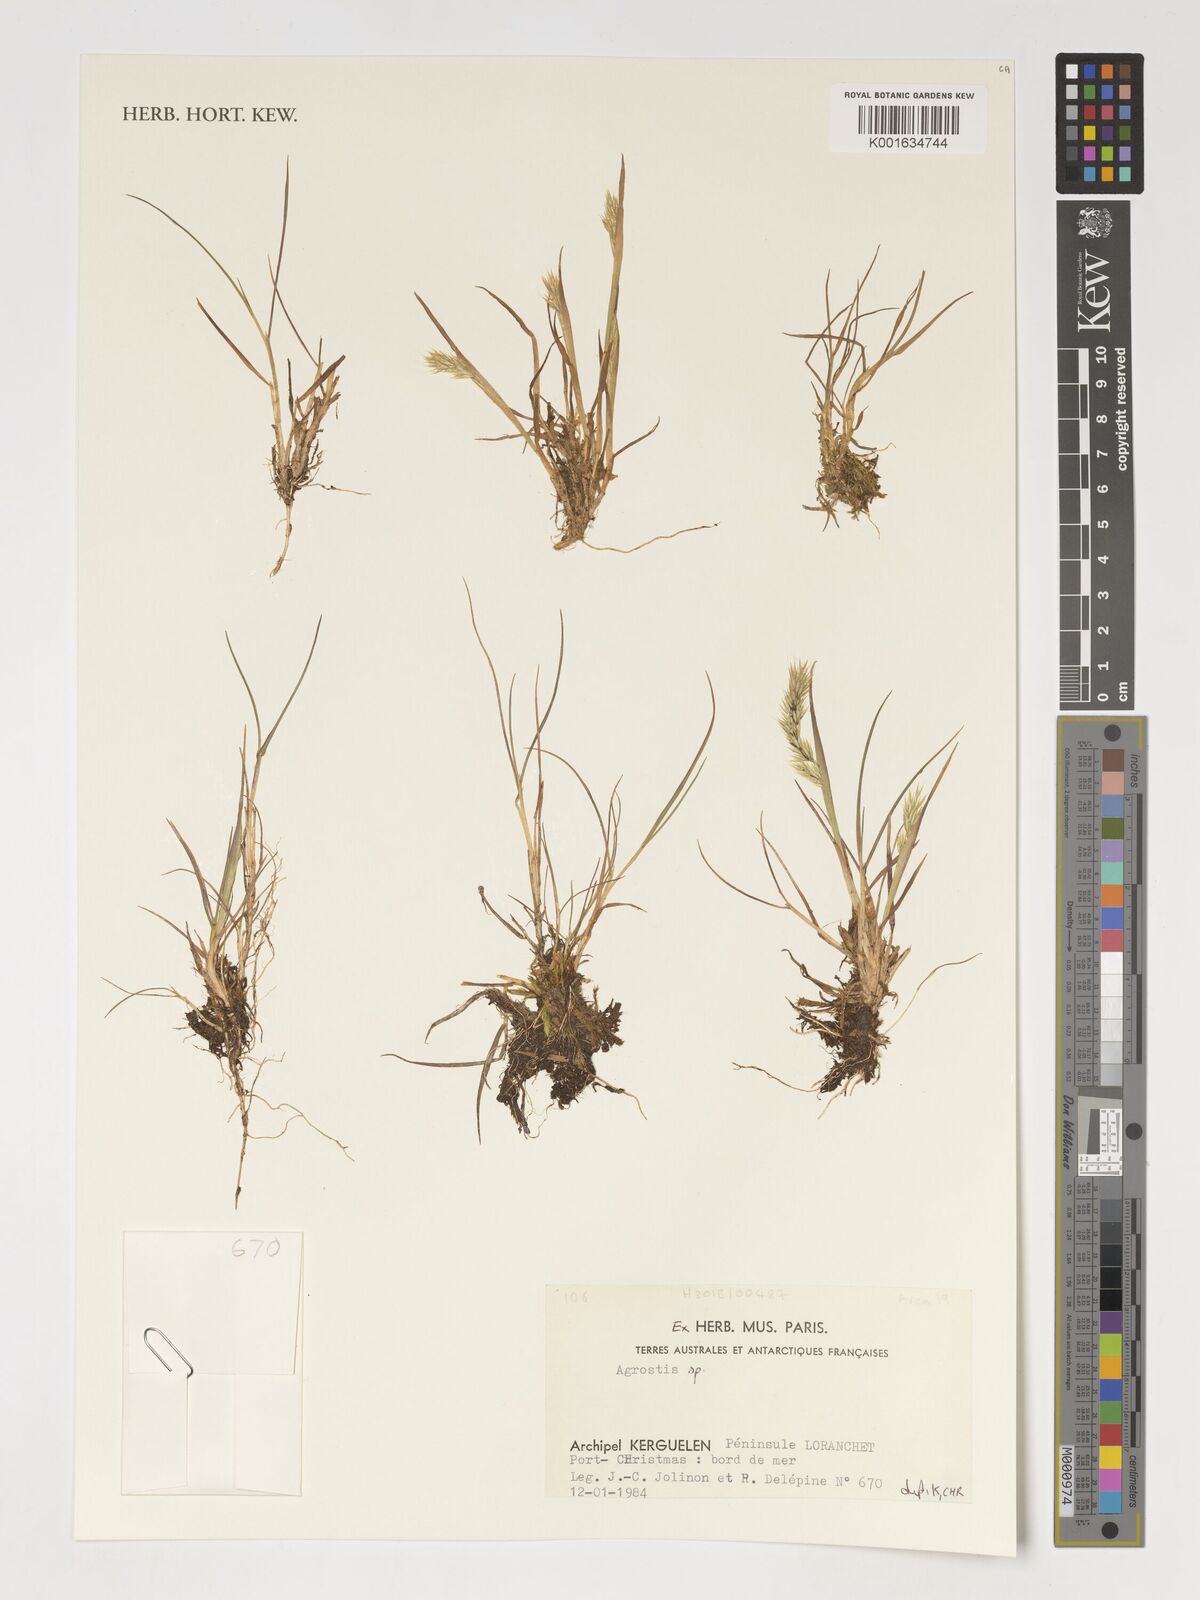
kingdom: Plantae
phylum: Tracheophyta
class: Liliopsida
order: Poales
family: Poaceae
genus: Agrostis
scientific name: Agrostis
